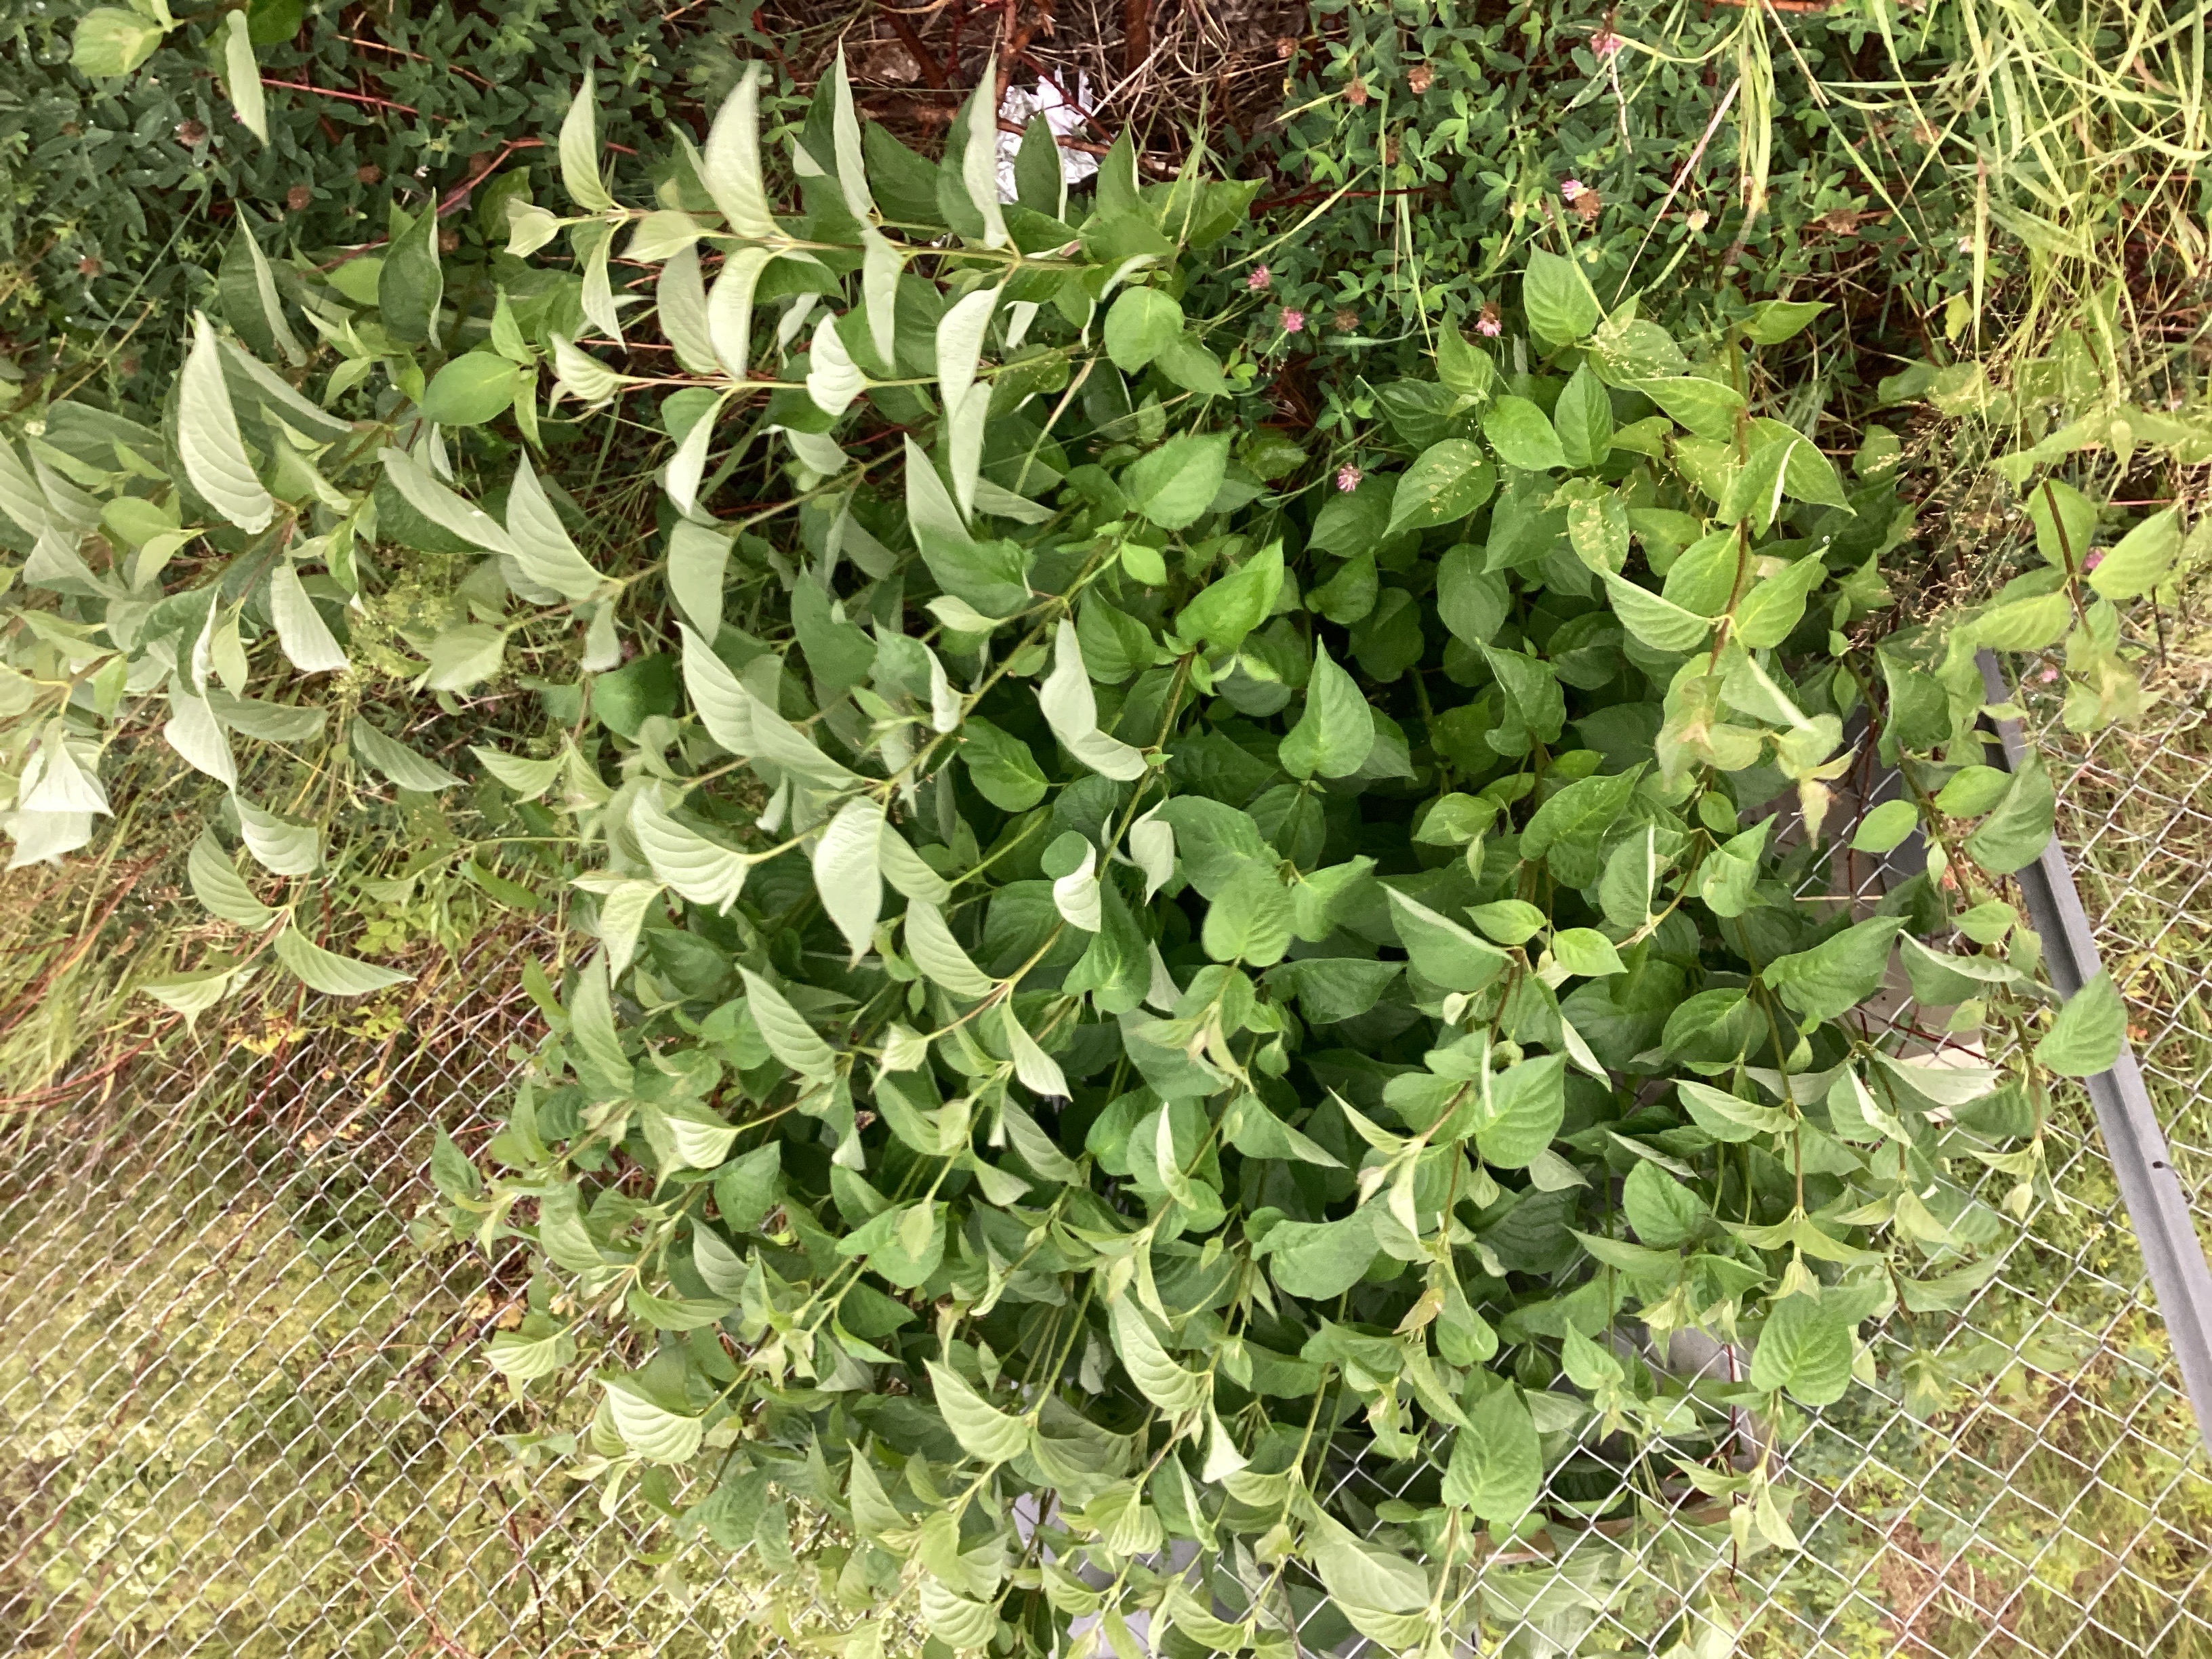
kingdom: Plantae
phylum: Tracheophyta
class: Magnoliopsida
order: Cornales
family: Cornaceae
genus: Cornus
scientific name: Cornus sericea
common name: alaskakornell
